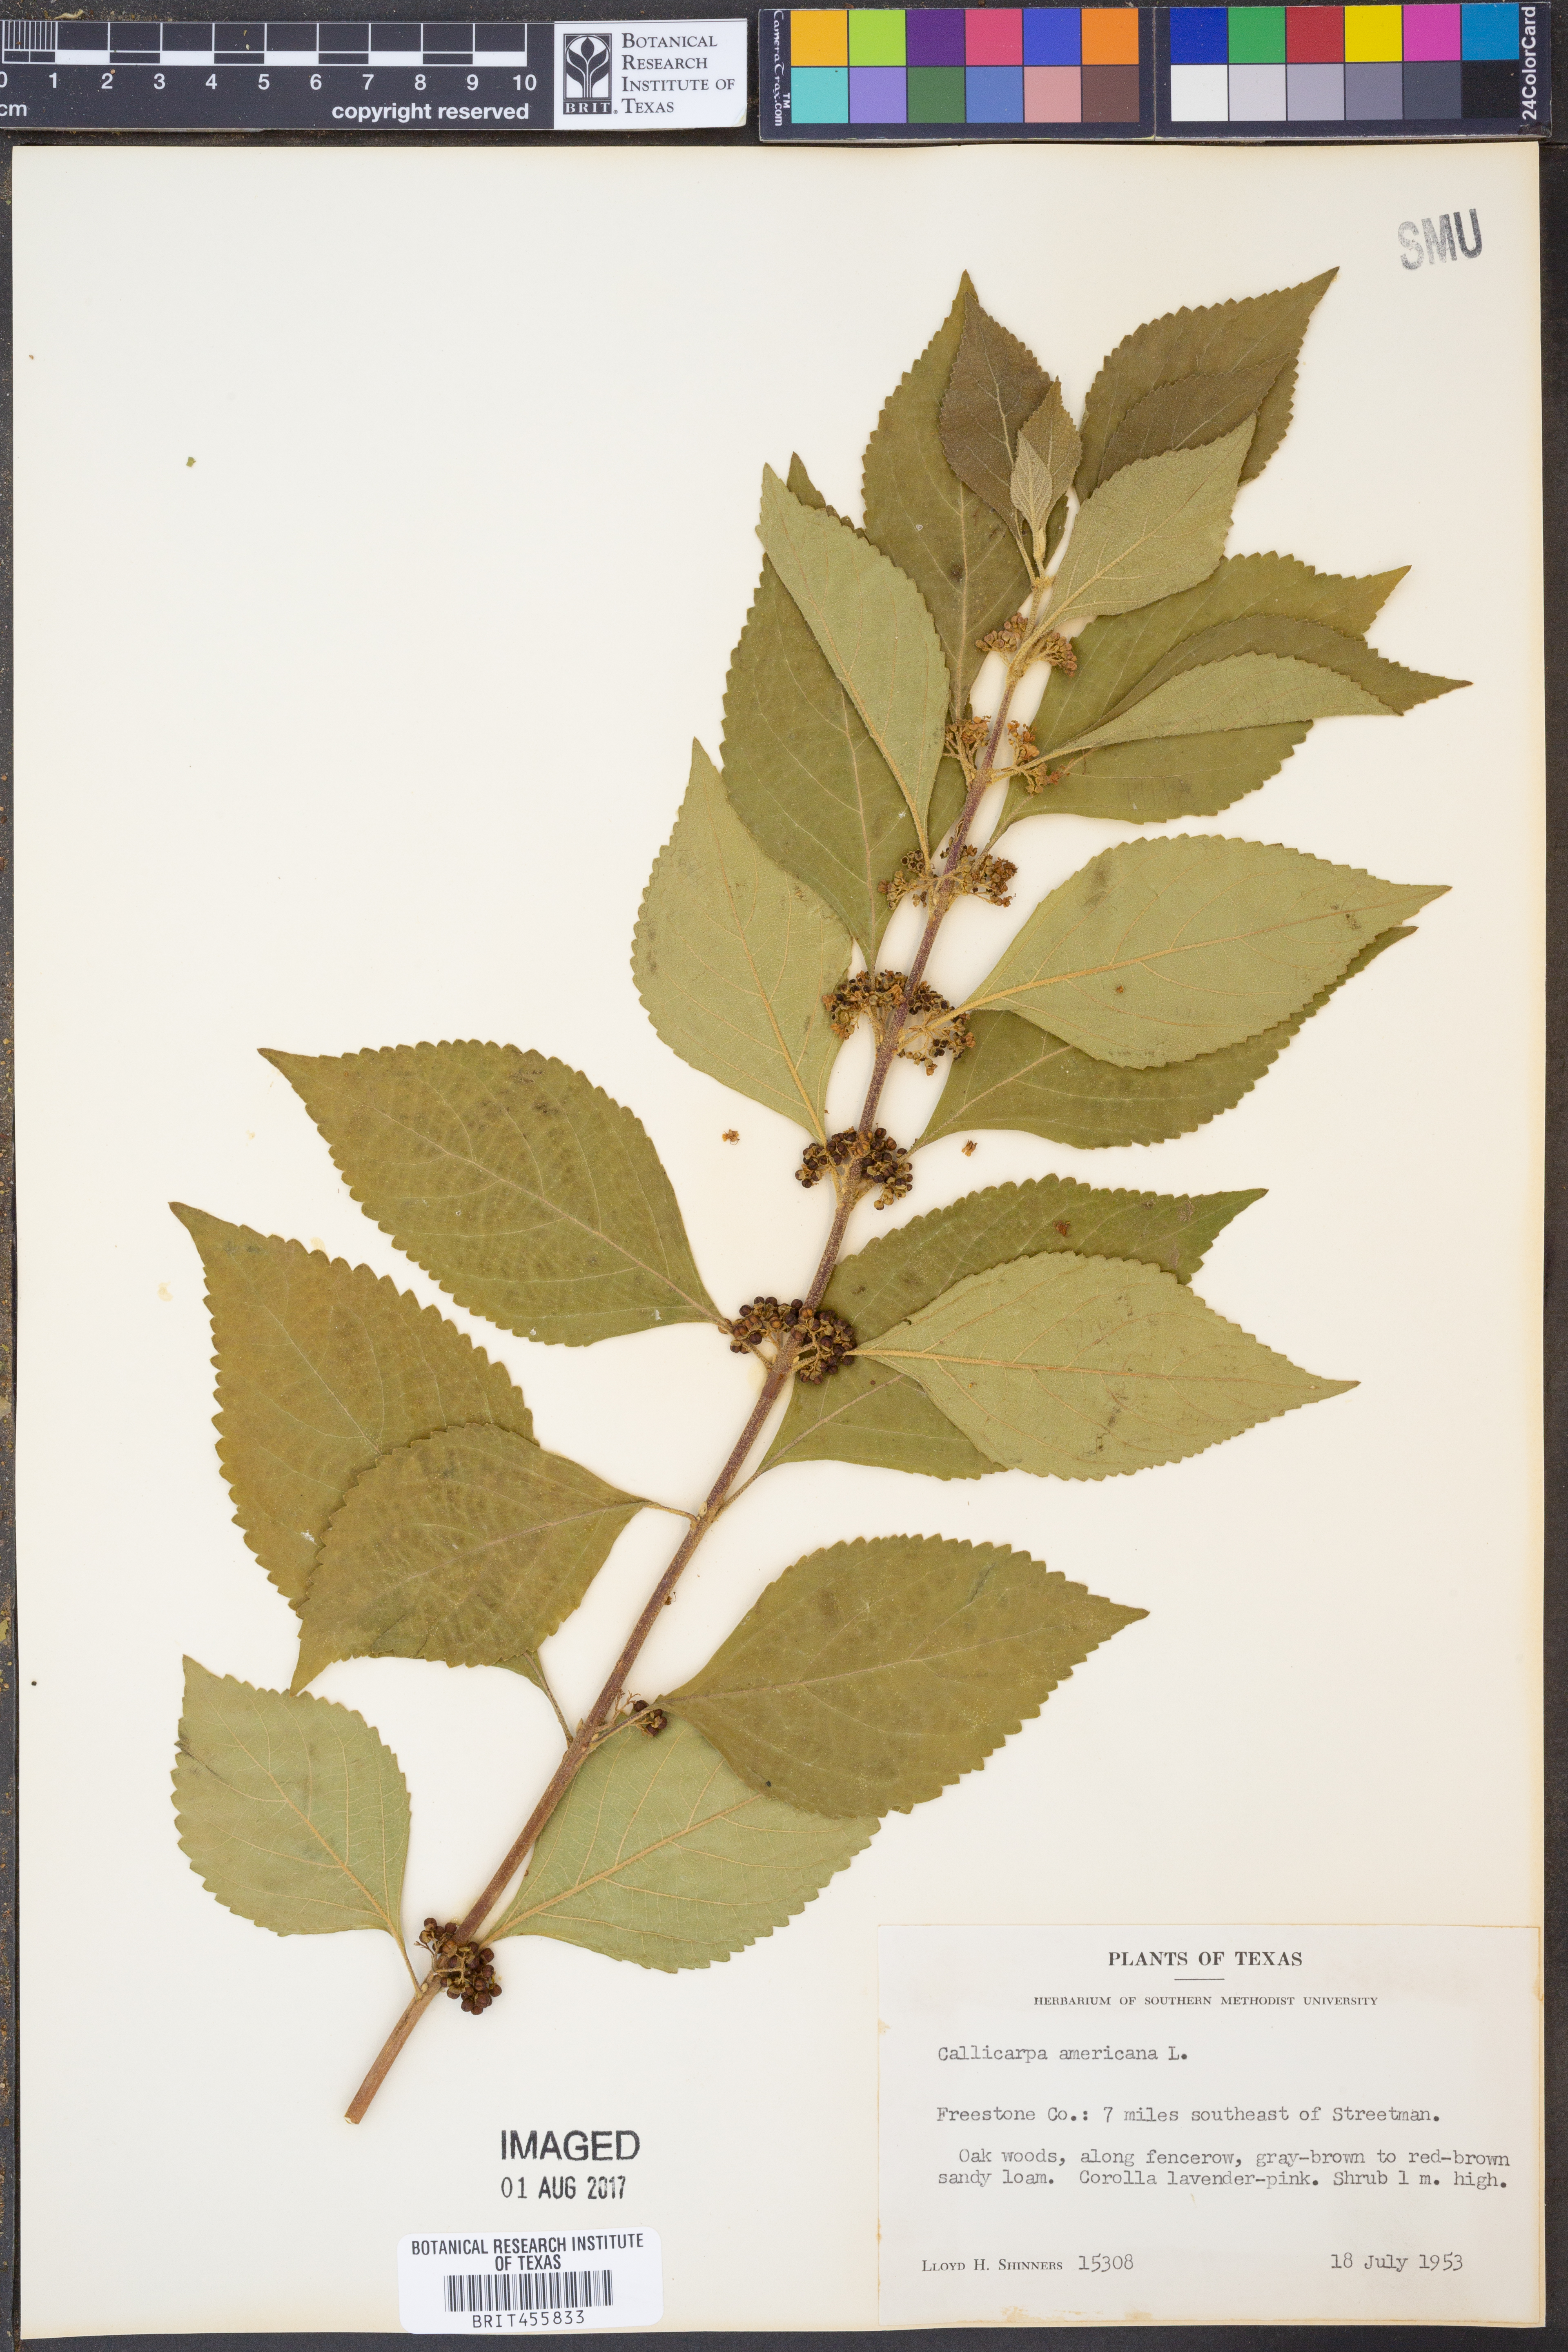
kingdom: Plantae
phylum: Tracheophyta
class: Magnoliopsida
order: Lamiales
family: Lamiaceae
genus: Callicarpa
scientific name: Callicarpa americana
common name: American beautyberry
